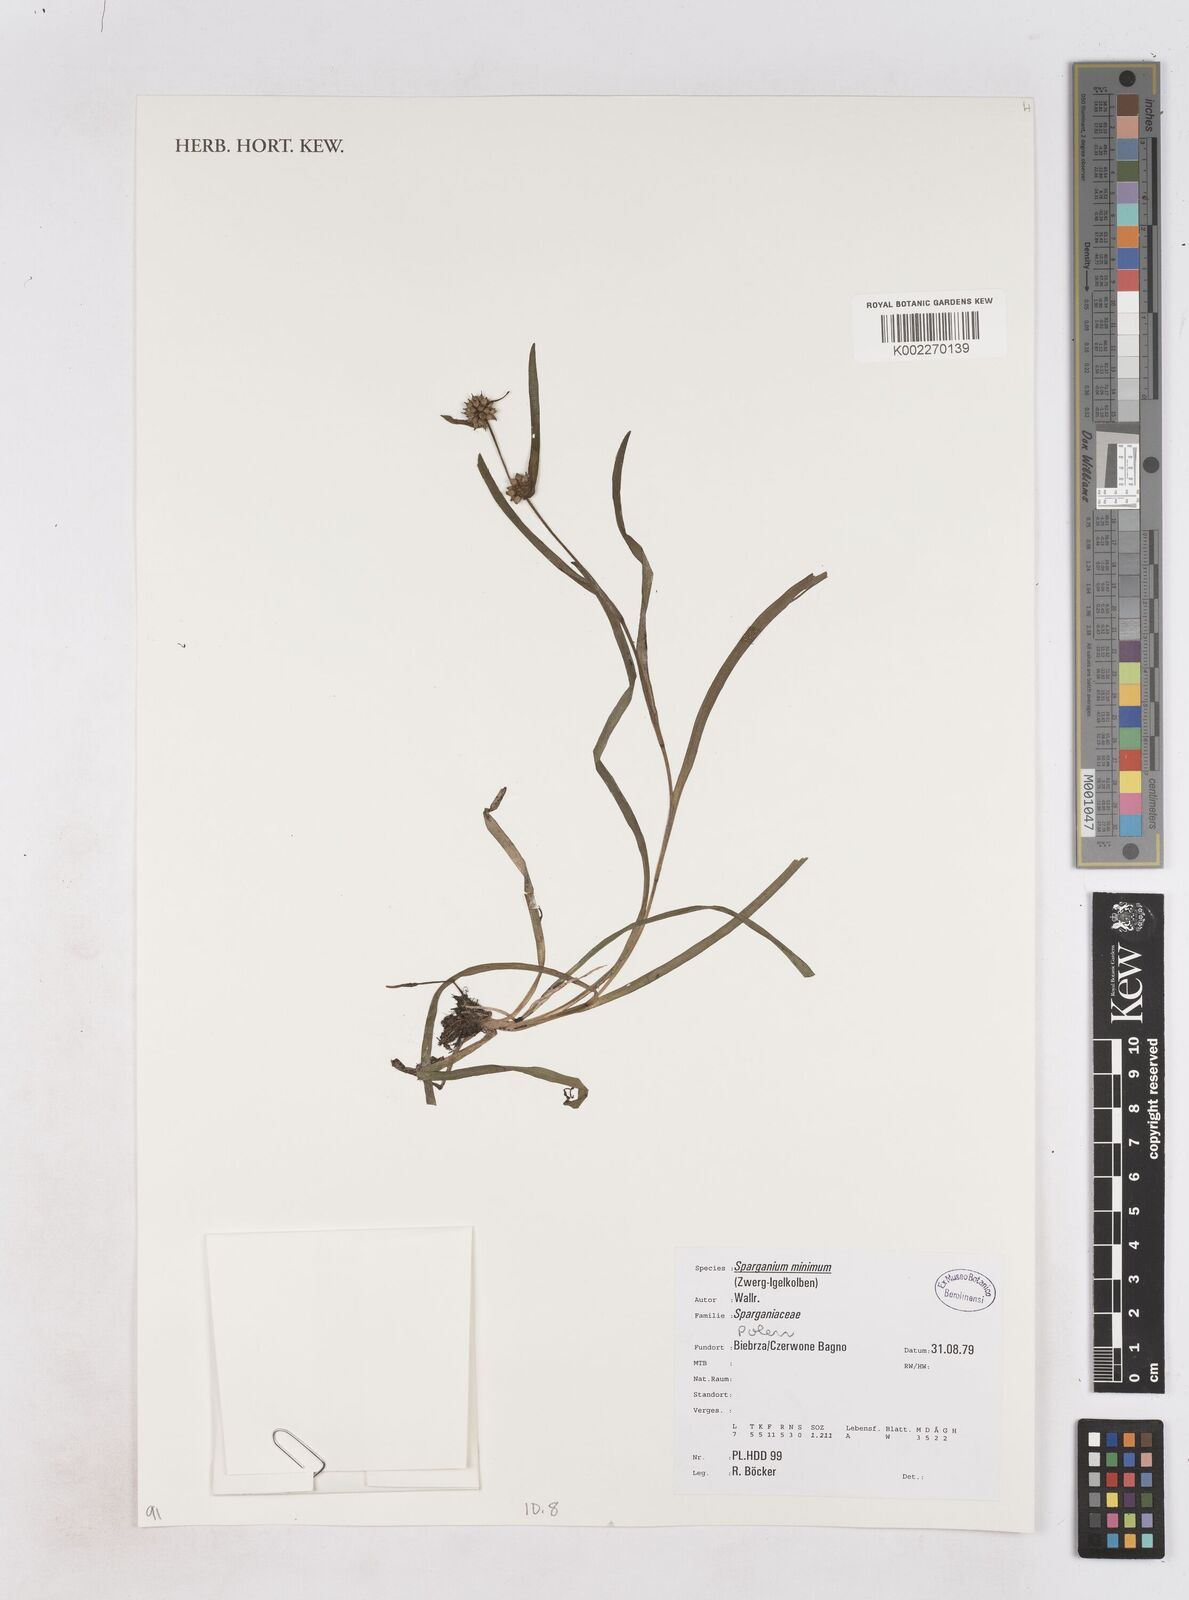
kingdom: Plantae
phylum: Tracheophyta
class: Liliopsida
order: Poales
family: Typhaceae
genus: Sparganium
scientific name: Sparganium natans
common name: Least bur-reed
